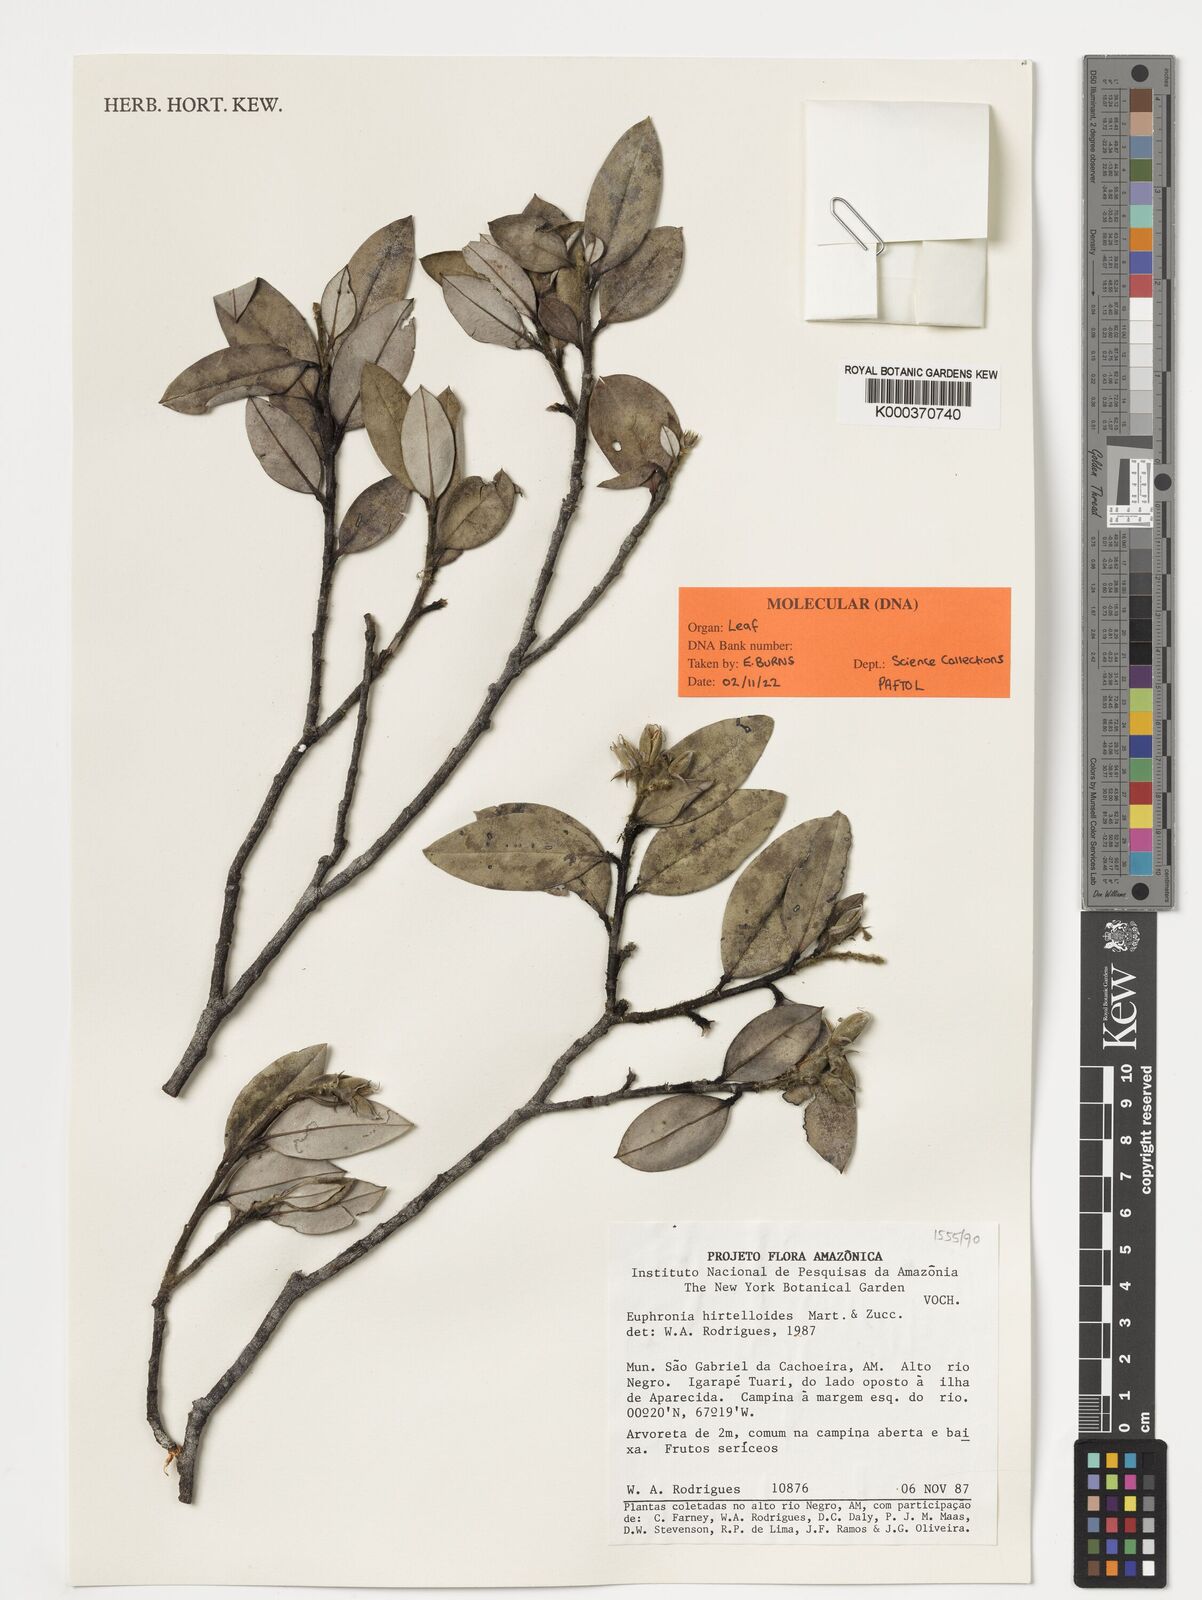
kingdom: Plantae
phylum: Tracheophyta
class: Magnoliopsida
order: Malpighiales
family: Euphroniaceae
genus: Euphronia
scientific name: Euphronia hirtelloides
